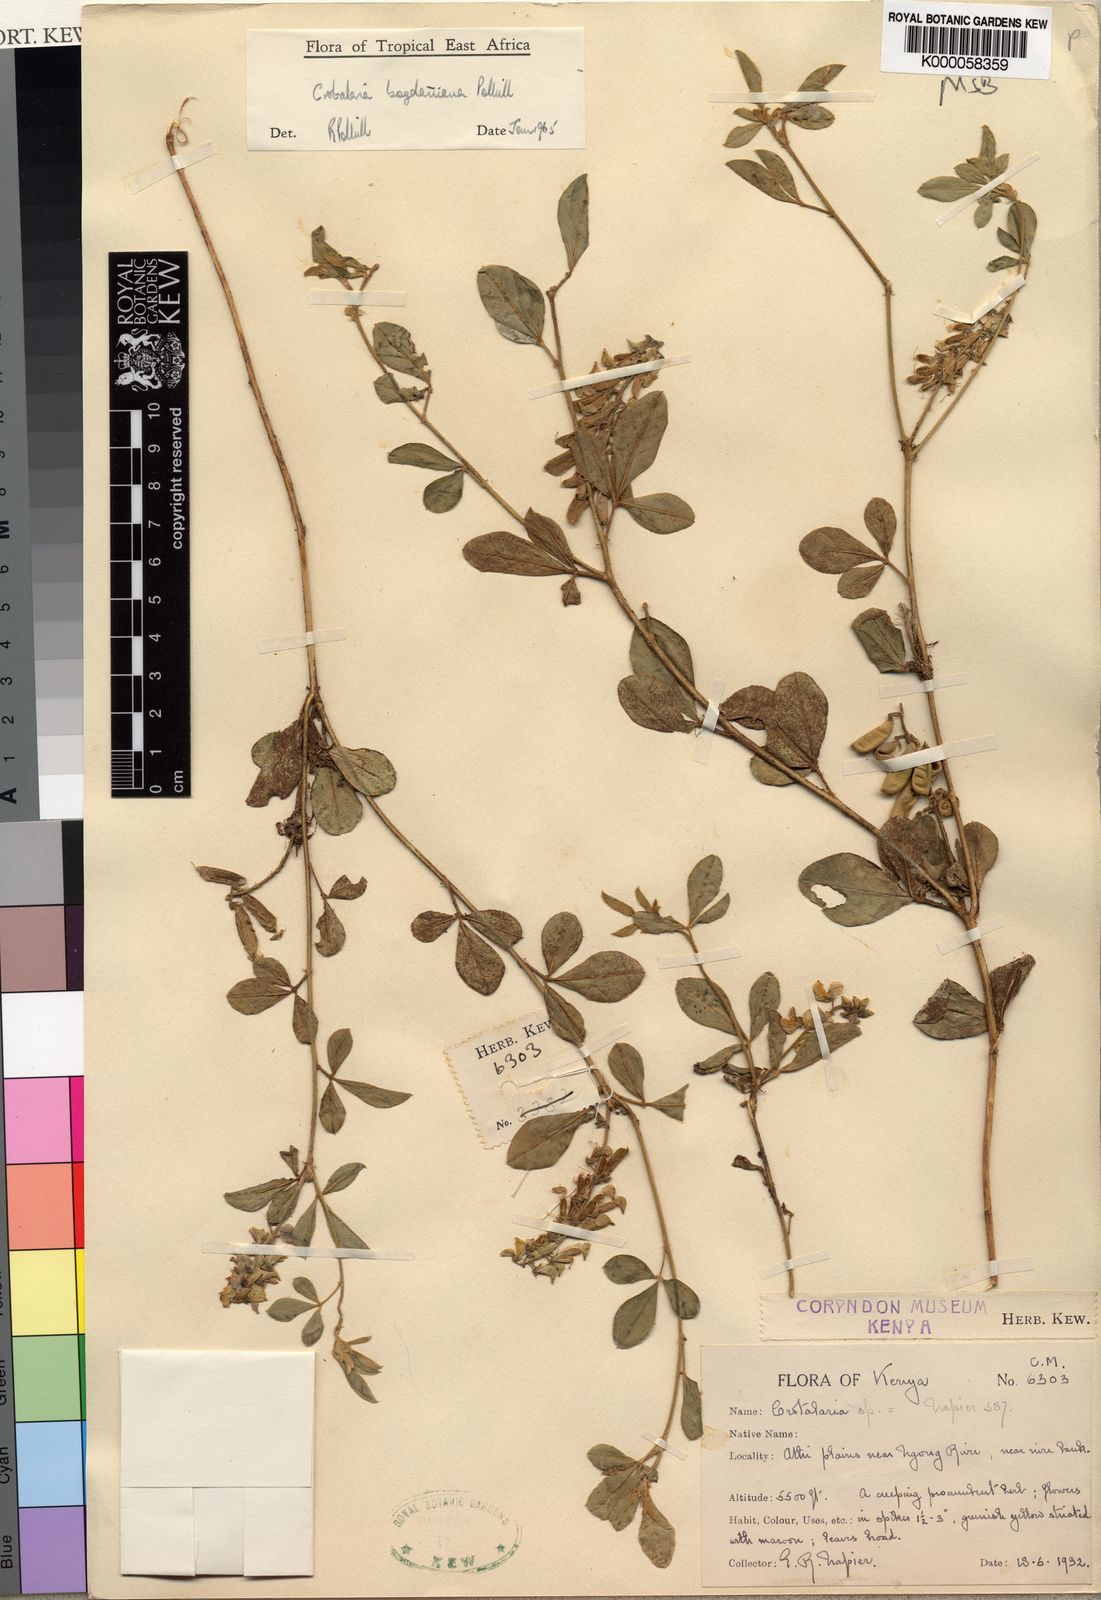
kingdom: Plantae
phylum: Tracheophyta
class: Magnoliopsida
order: Fabales
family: Fabaceae
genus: Crotalaria
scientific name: Crotalaria bogdaniana
